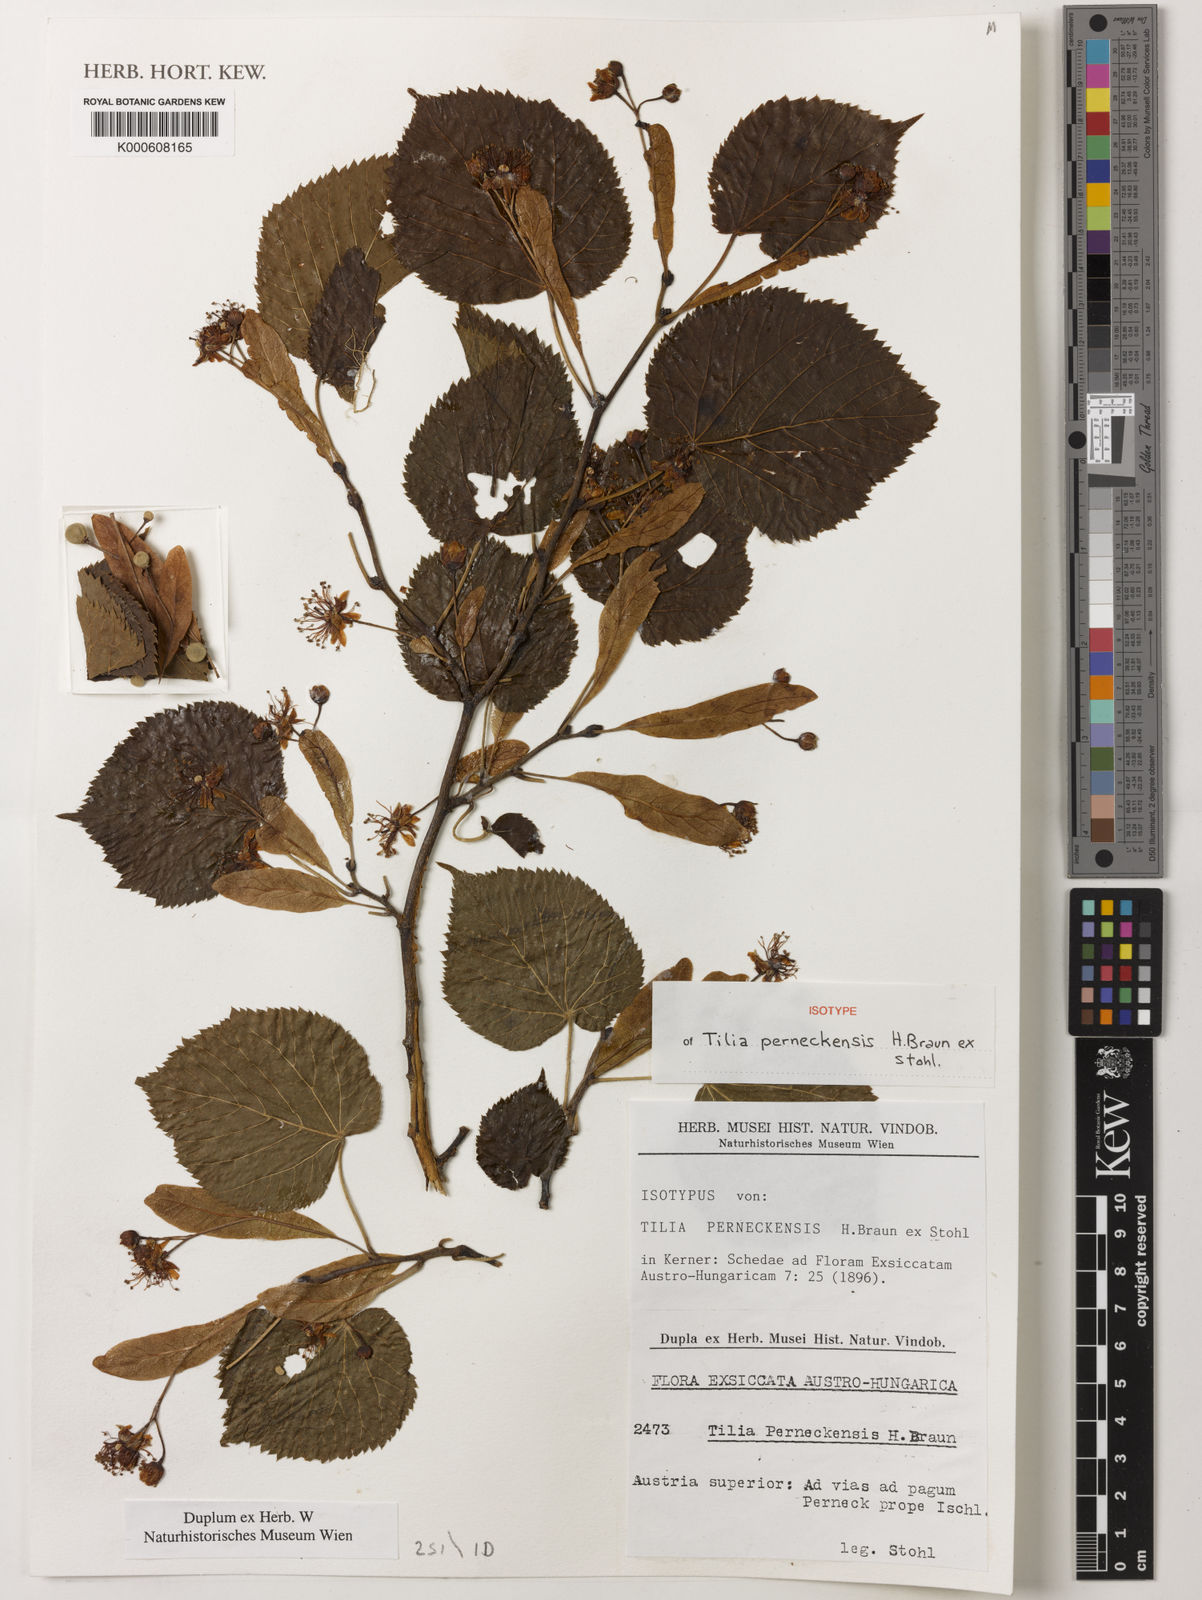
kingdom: Plantae
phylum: Tracheophyta
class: Magnoliopsida
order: Malvales
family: Malvaceae
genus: Tilia
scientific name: Tilia
